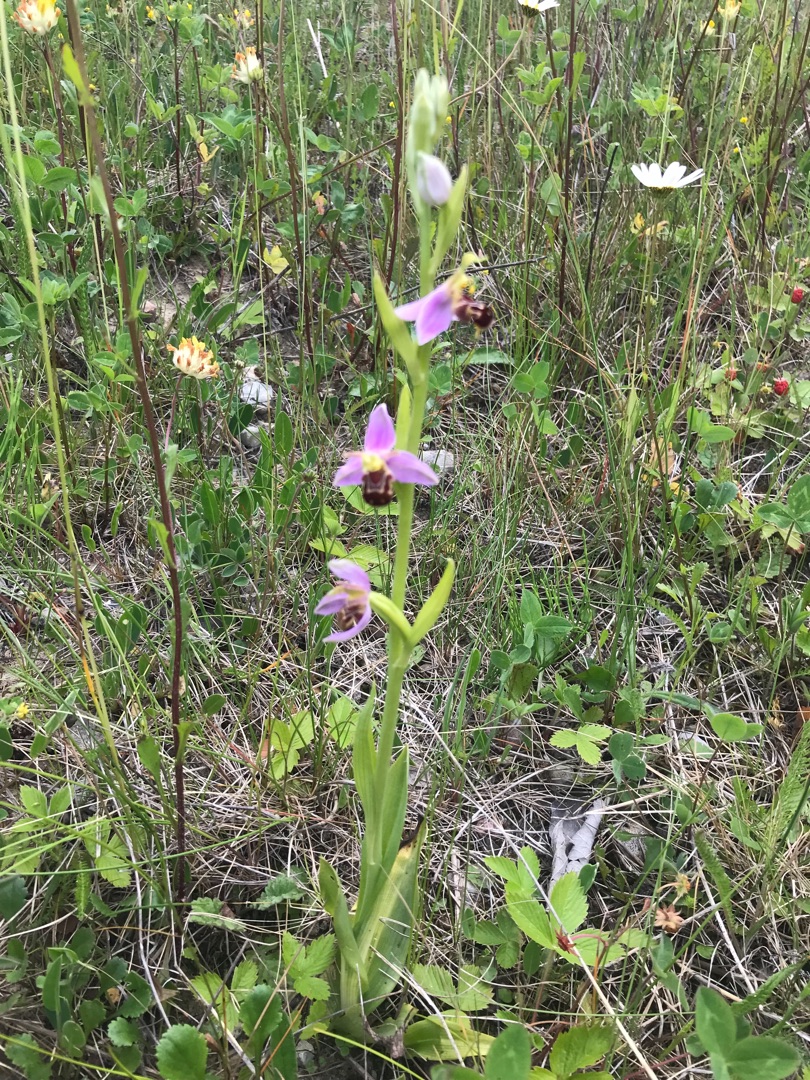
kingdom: Plantae
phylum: Tracheophyta
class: Liliopsida
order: Asparagales
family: Orchidaceae
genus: Ophrys
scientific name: Ophrys apifera
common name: Biblomst
